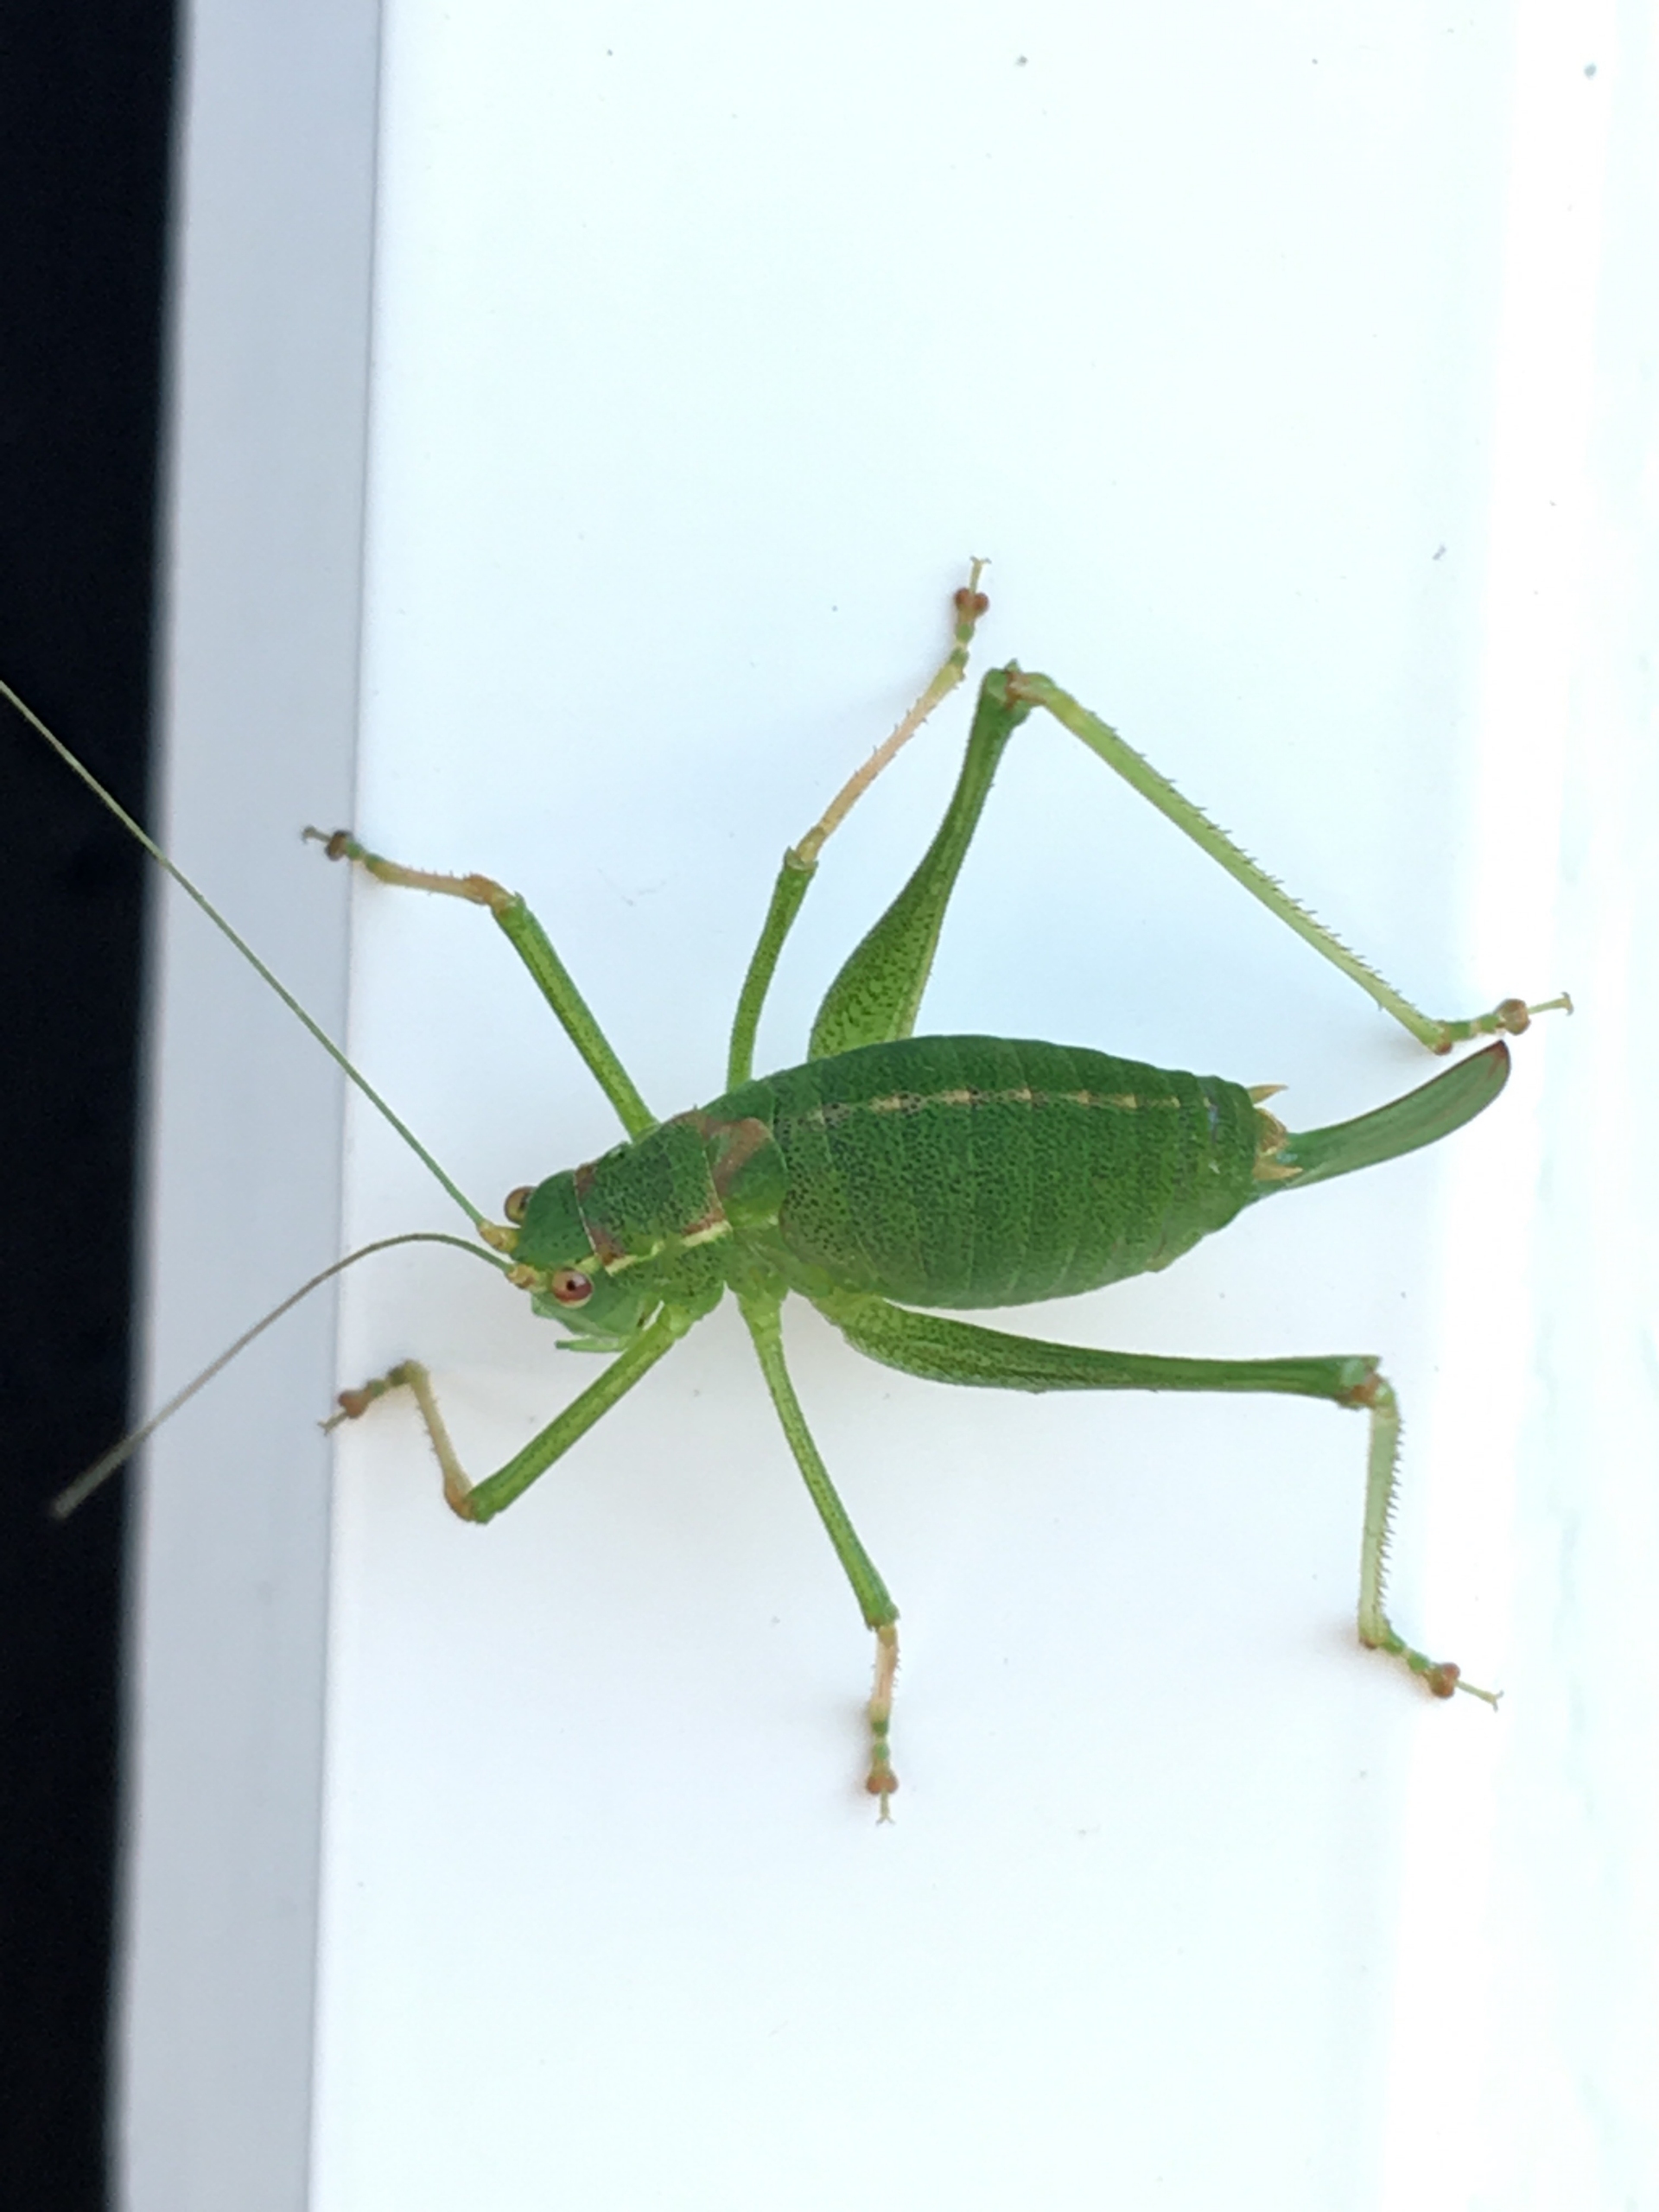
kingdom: Animalia
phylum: Arthropoda
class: Insecta
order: Orthoptera
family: Tettigoniidae
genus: Leptophyes
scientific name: Leptophyes punctatissima
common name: Krumknivgræshoppe
